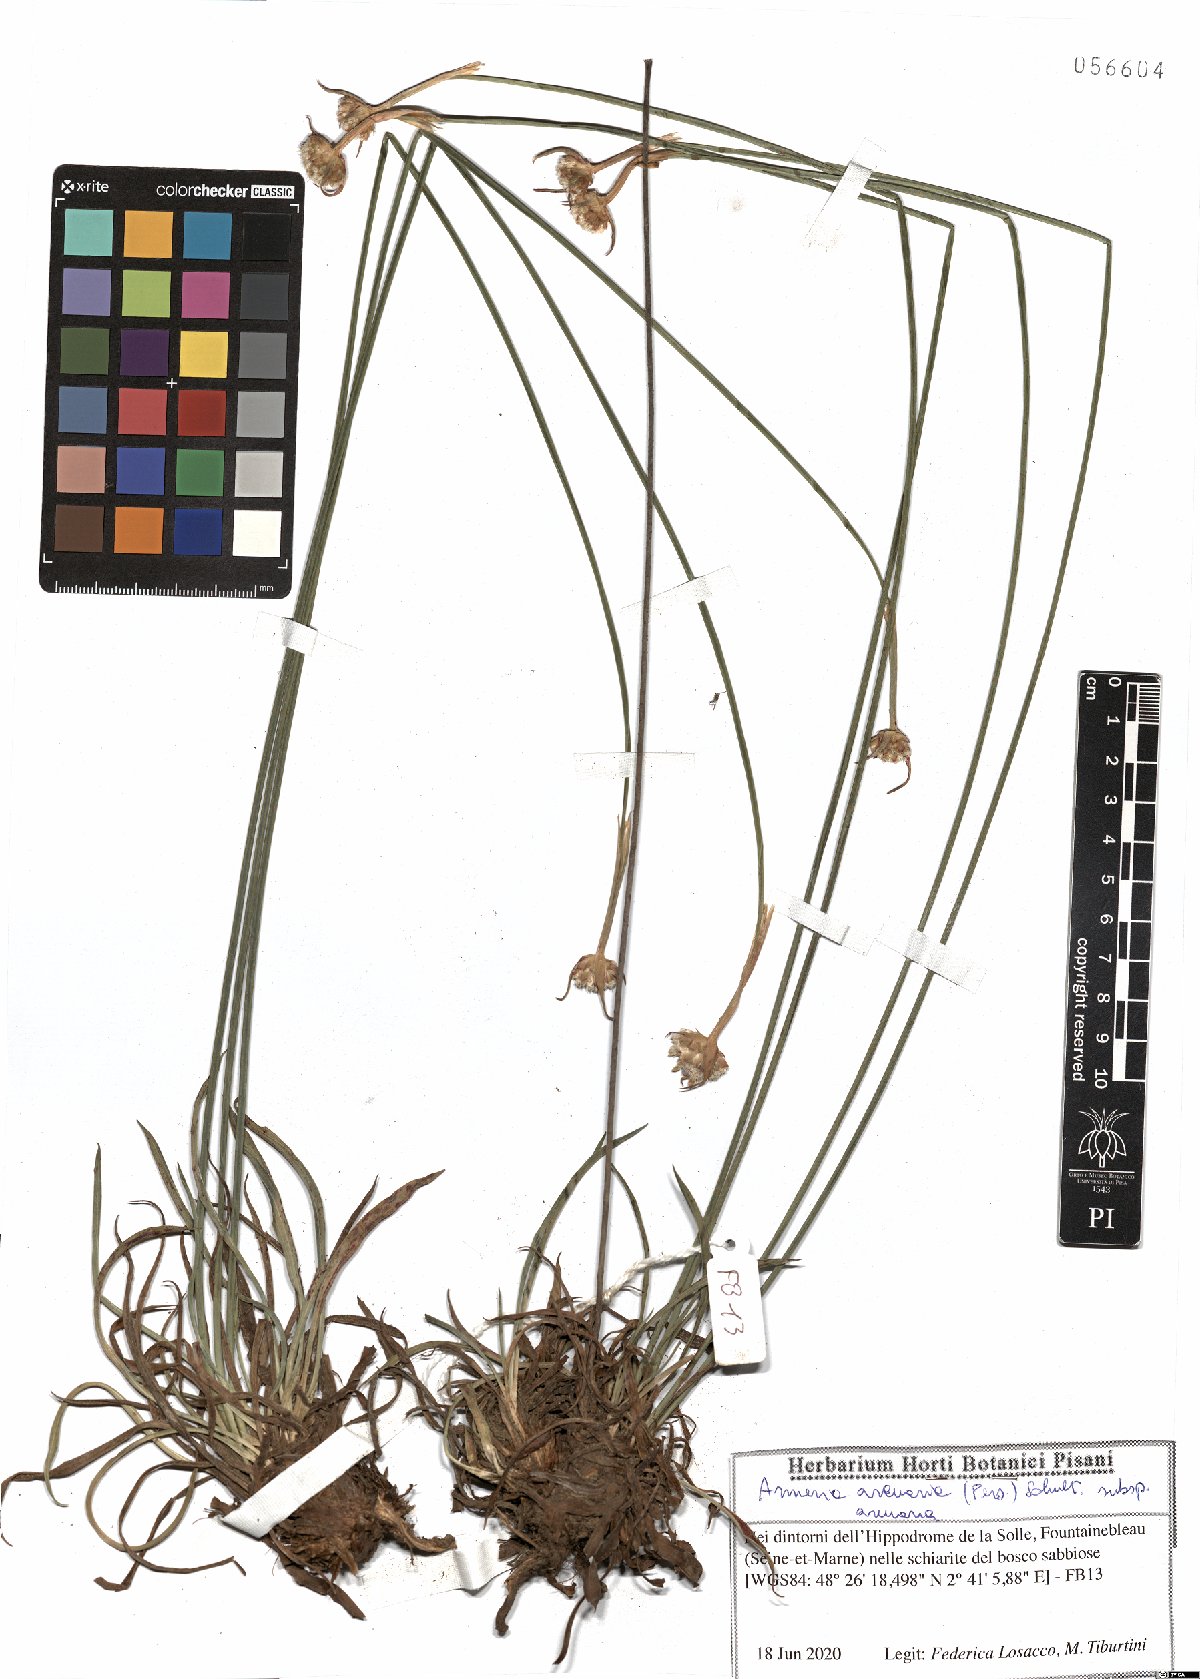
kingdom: Plantae
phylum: Tracheophyta
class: Magnoliopsida
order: Caryophyllales
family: Plumbaginaceae
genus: Armeria
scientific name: Armeria arenaria
